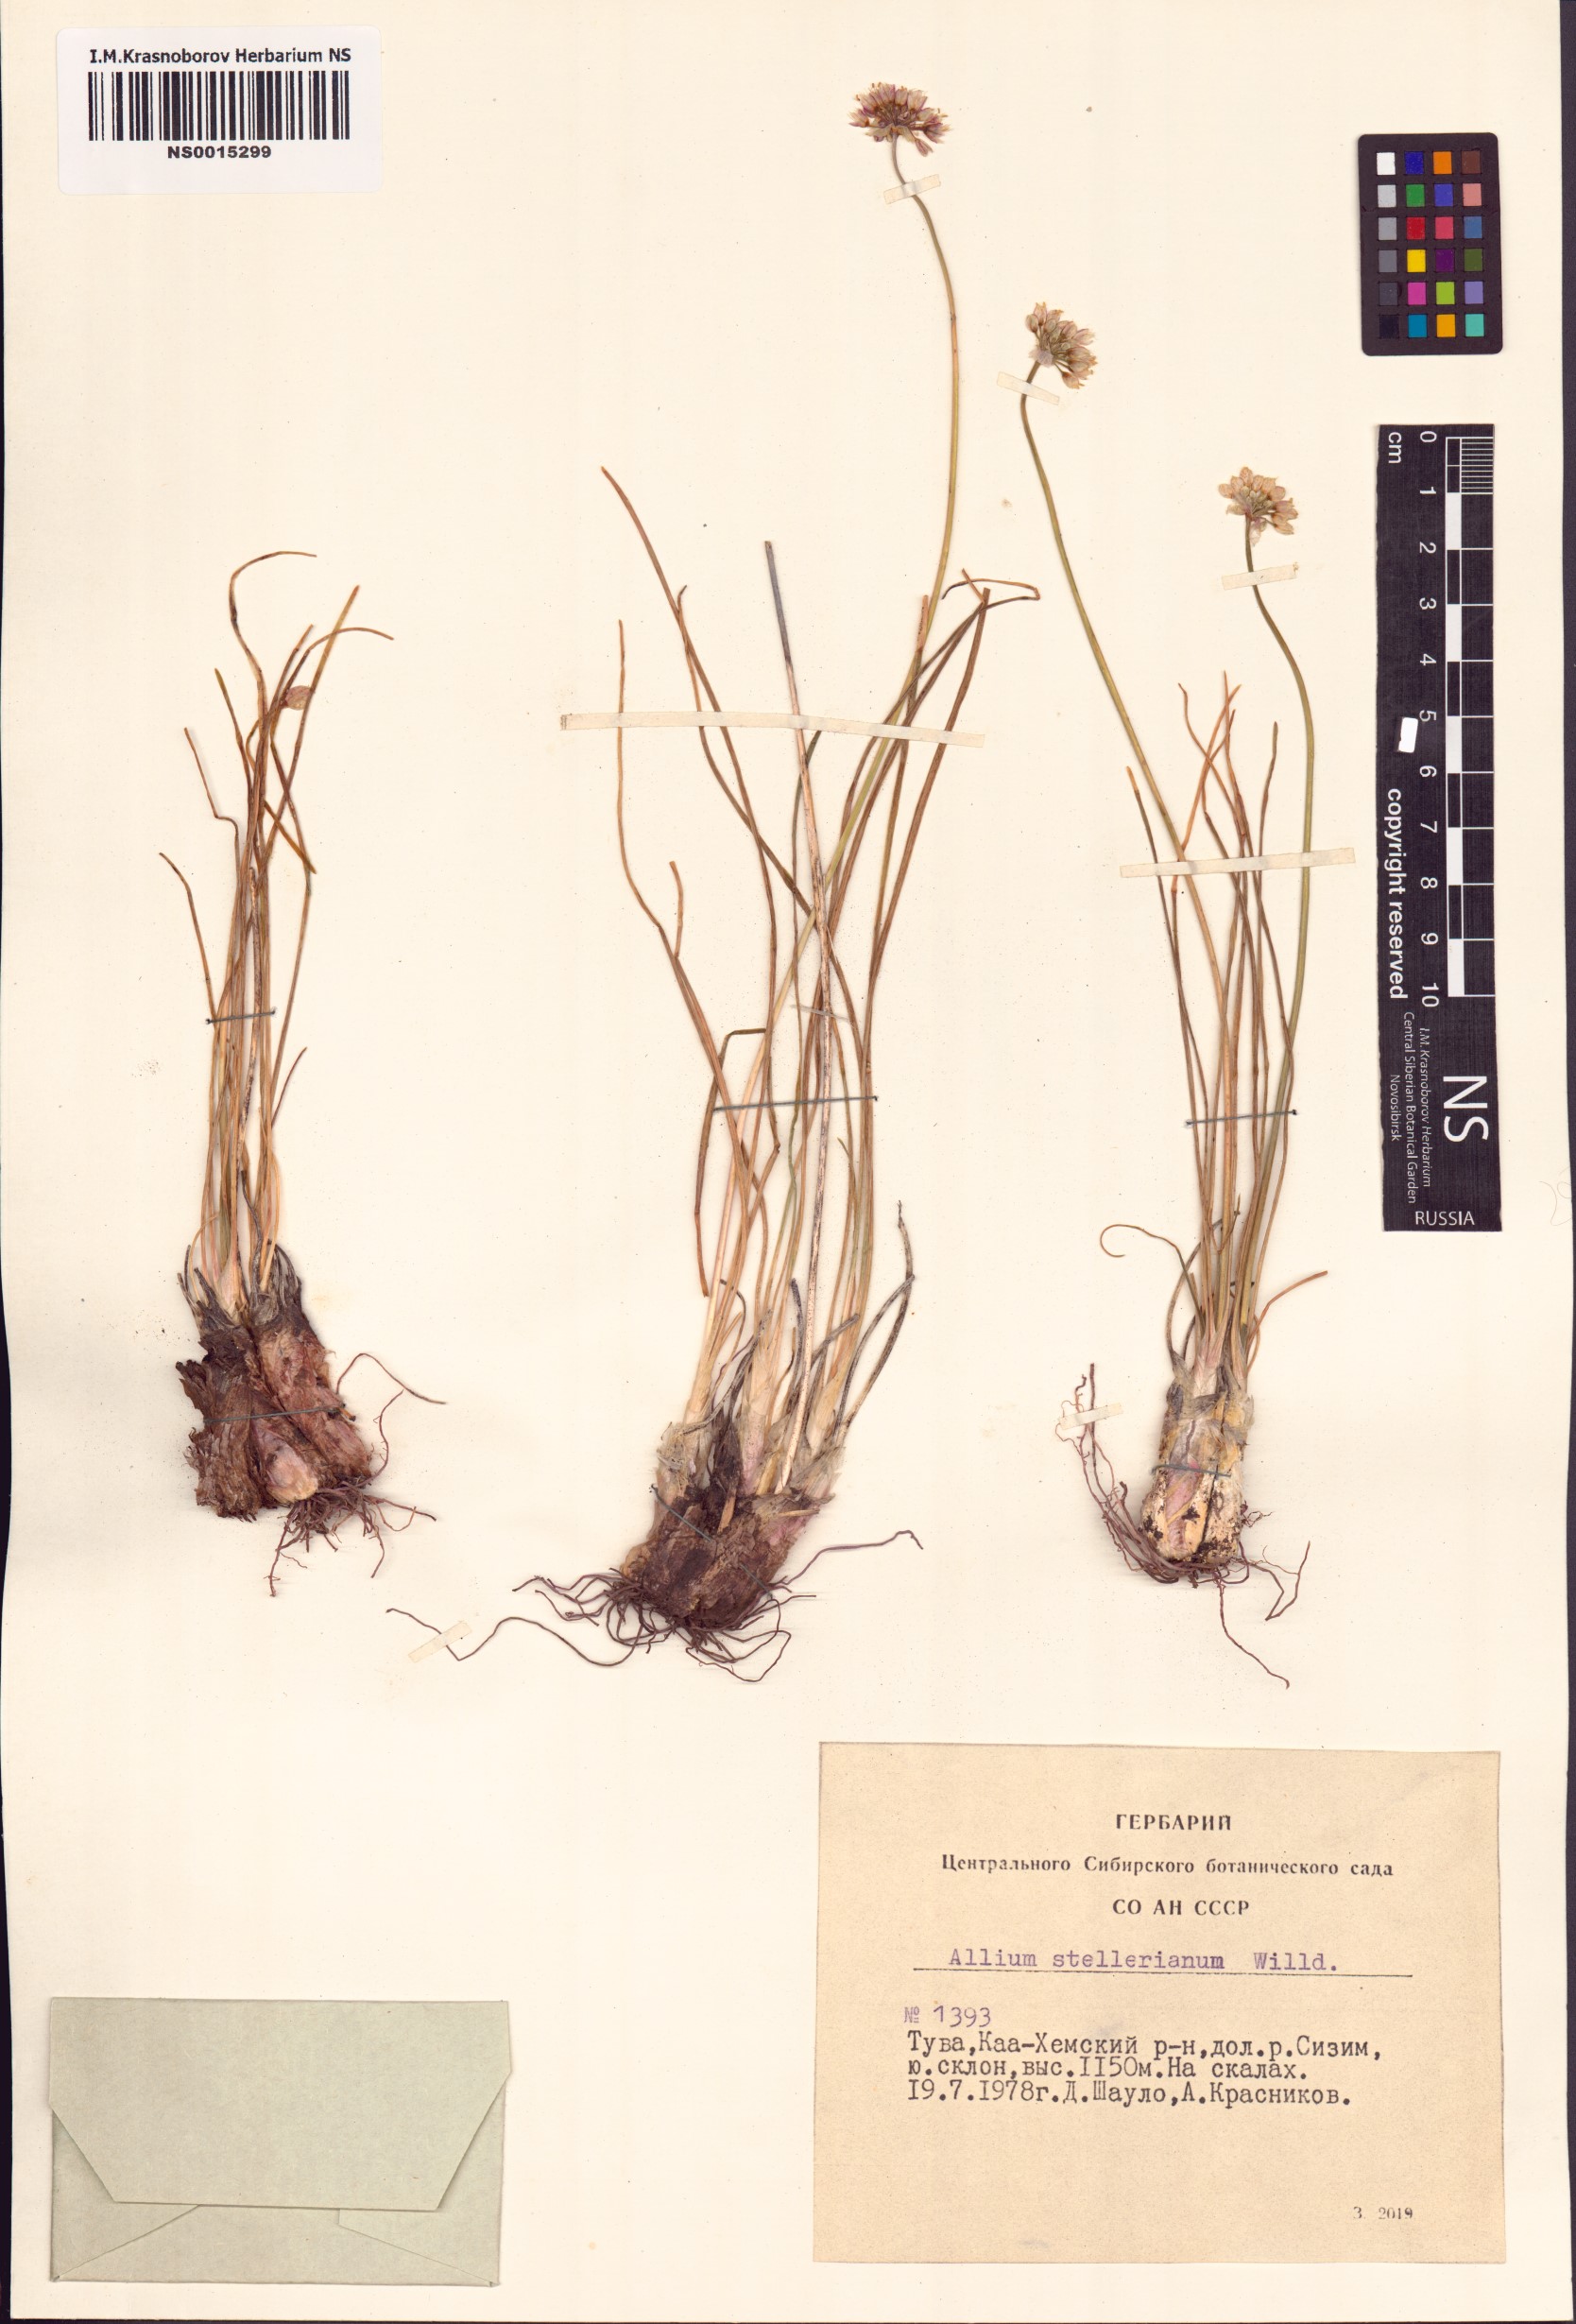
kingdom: Plantae
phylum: Tracheophyta
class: Liliopsida
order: Asparagales
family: Amaryllidaceae
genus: Allium
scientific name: Allium stellerianum
